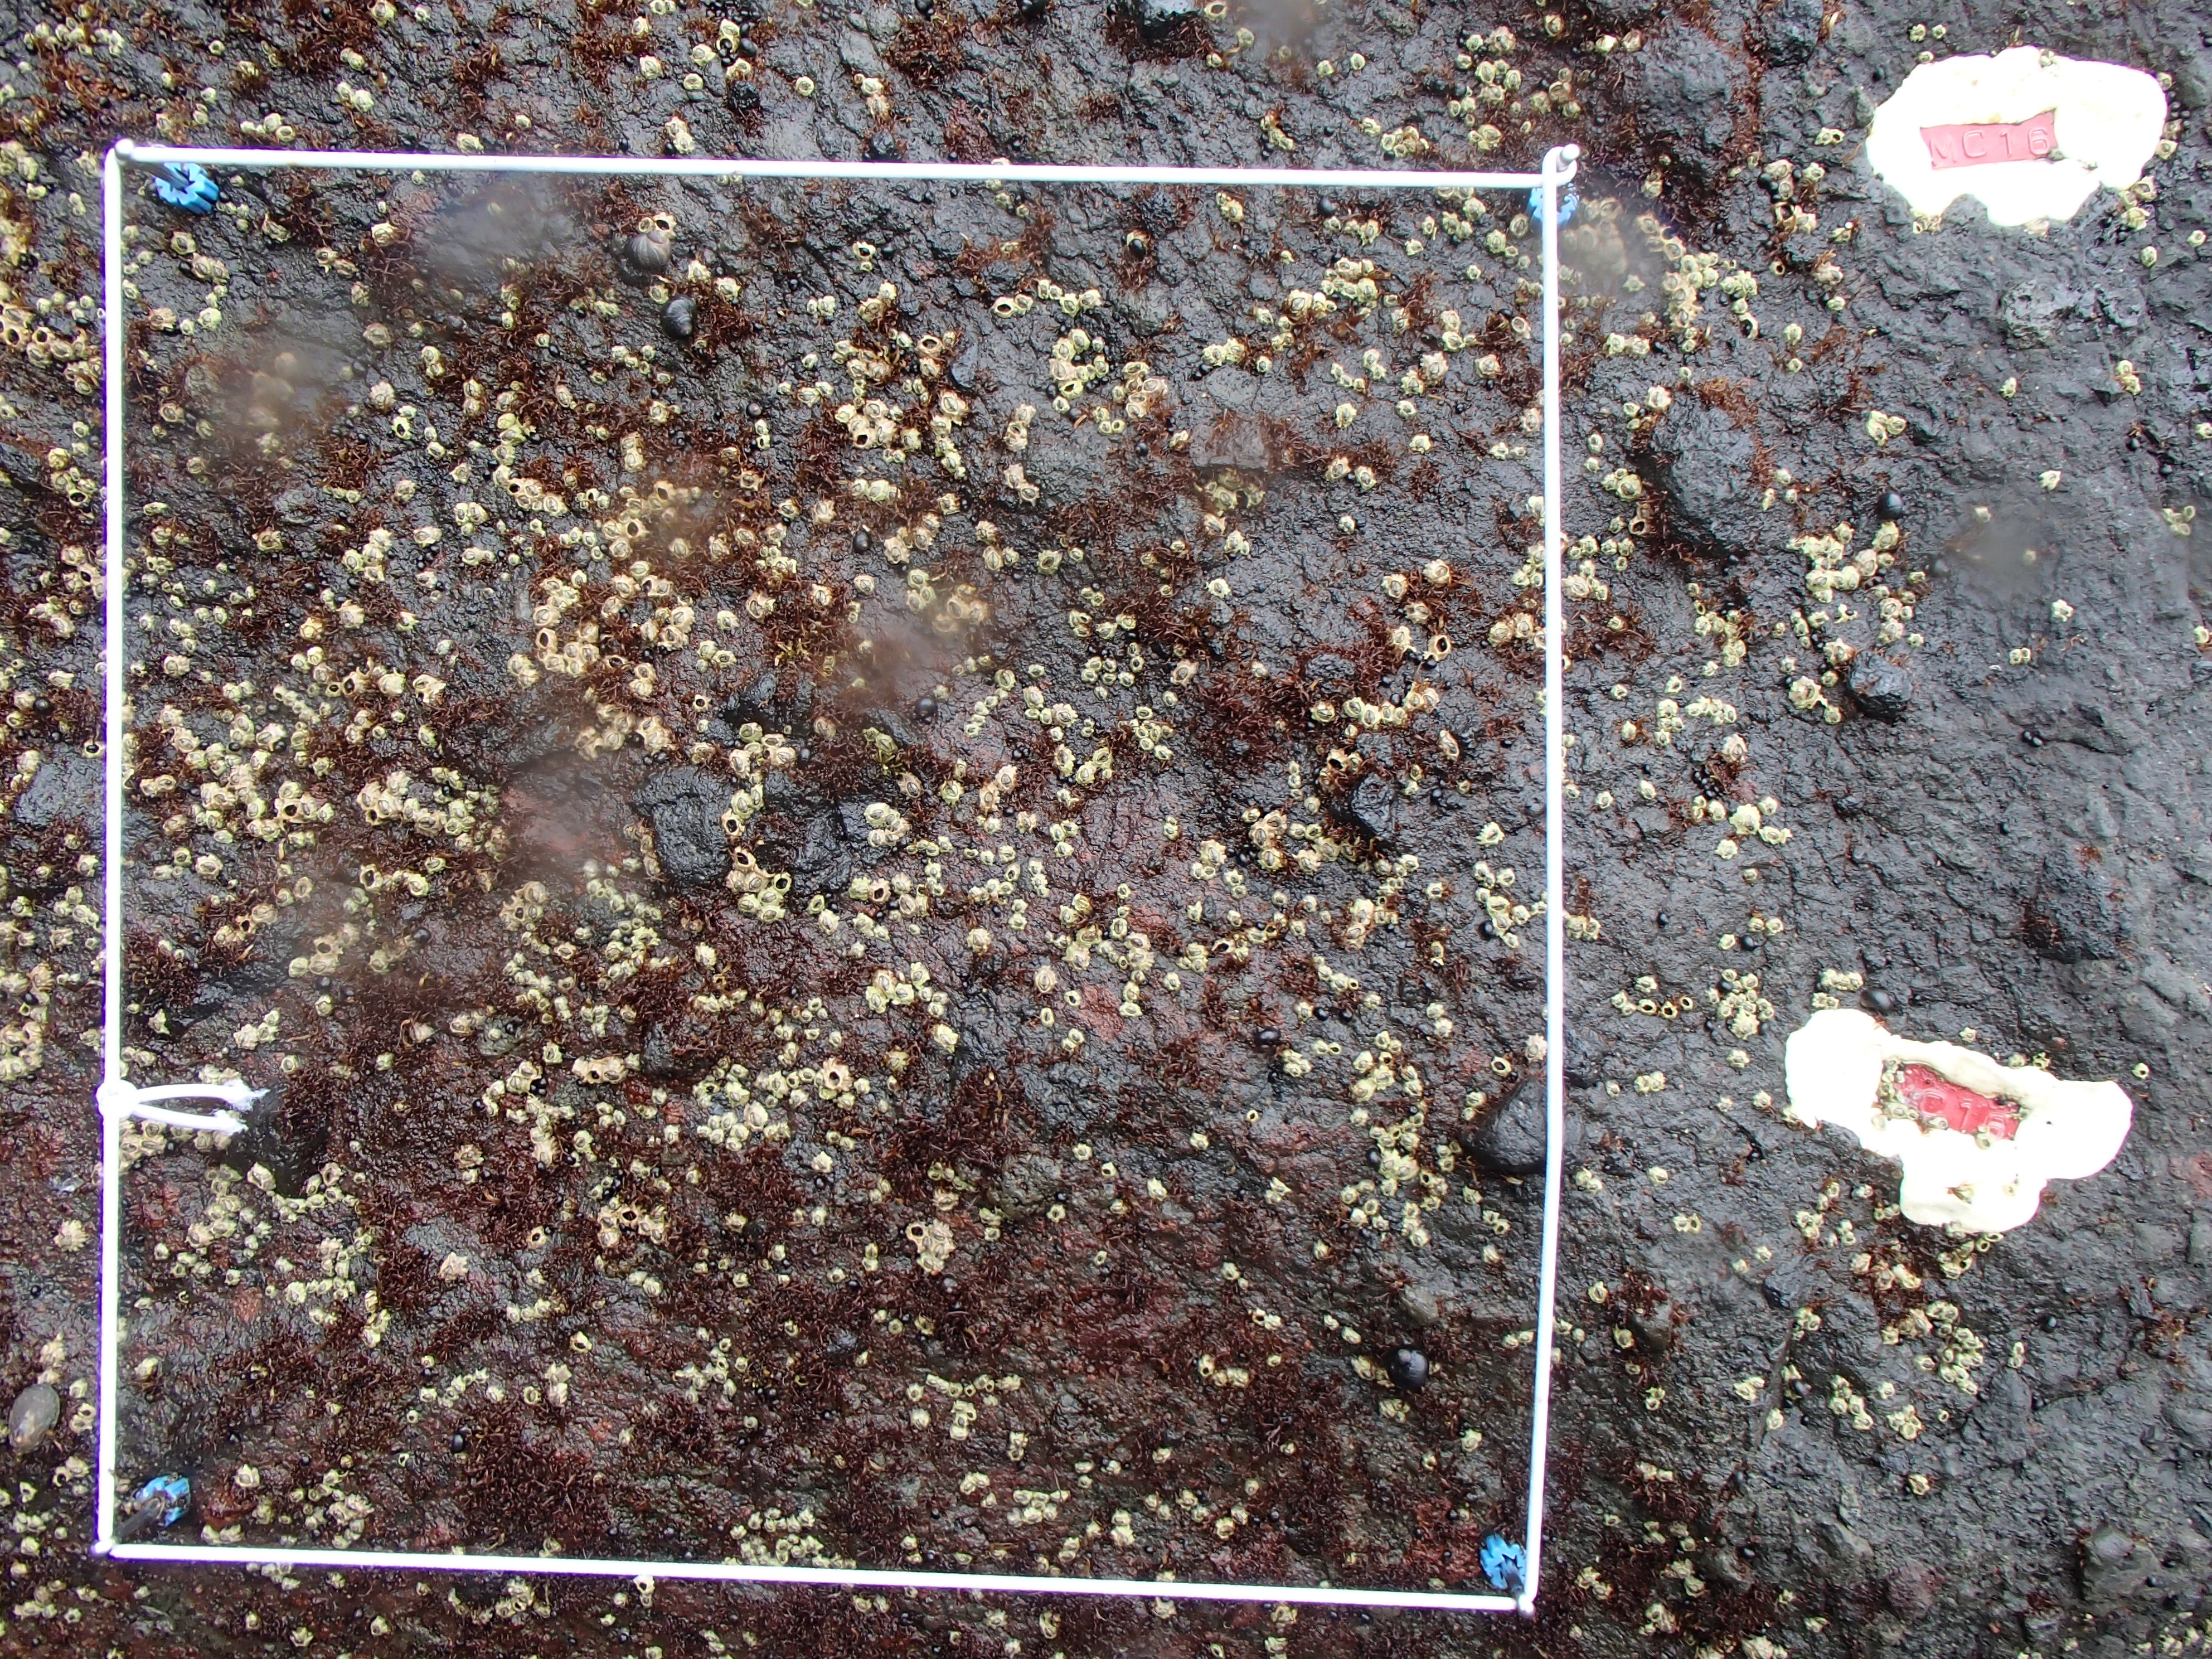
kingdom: Plantae
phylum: Rhodophyta
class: Florideophyceae
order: Gigartinales
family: Endocladiaceae
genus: Gloiopeltis
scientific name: Gloiopeltis furcata
